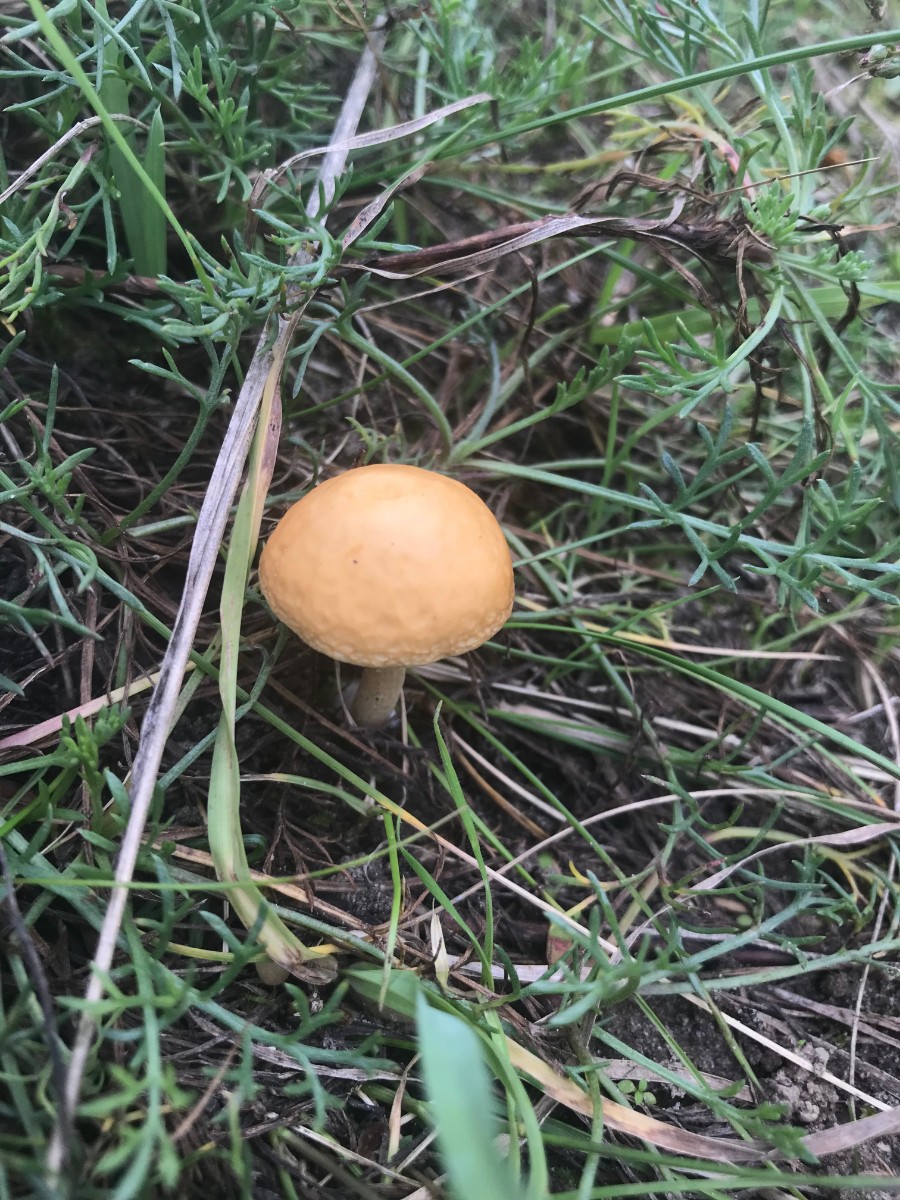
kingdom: Fungi
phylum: Basidiomycota
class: Agaricomycetes
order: Agaricales
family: Strophariaceae
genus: Agrocybe
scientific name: Agrocybe vervacti
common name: lav agerhat
